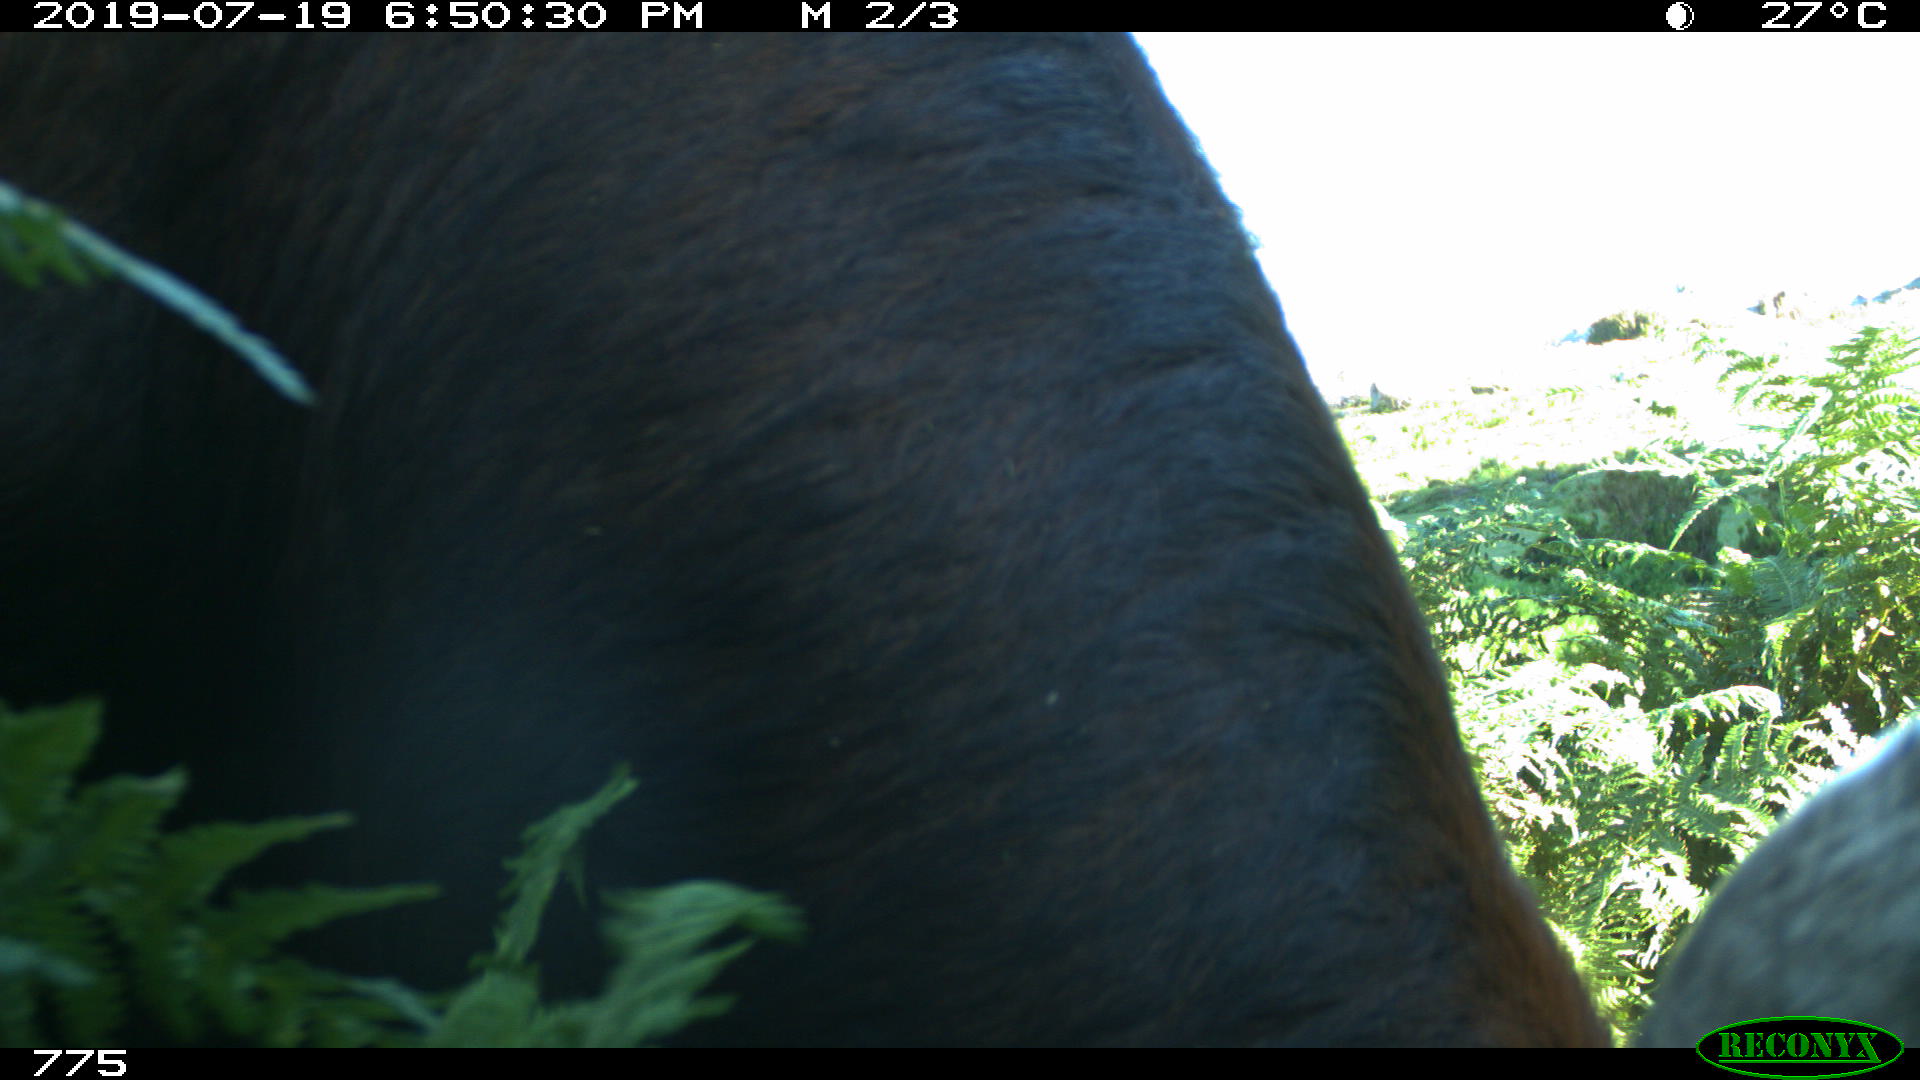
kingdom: Animalia
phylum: Chordata
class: Mammalia
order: Artiodactyla
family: Bovidae
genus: Bos
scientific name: Bos taurus
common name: Domesticated cattle
